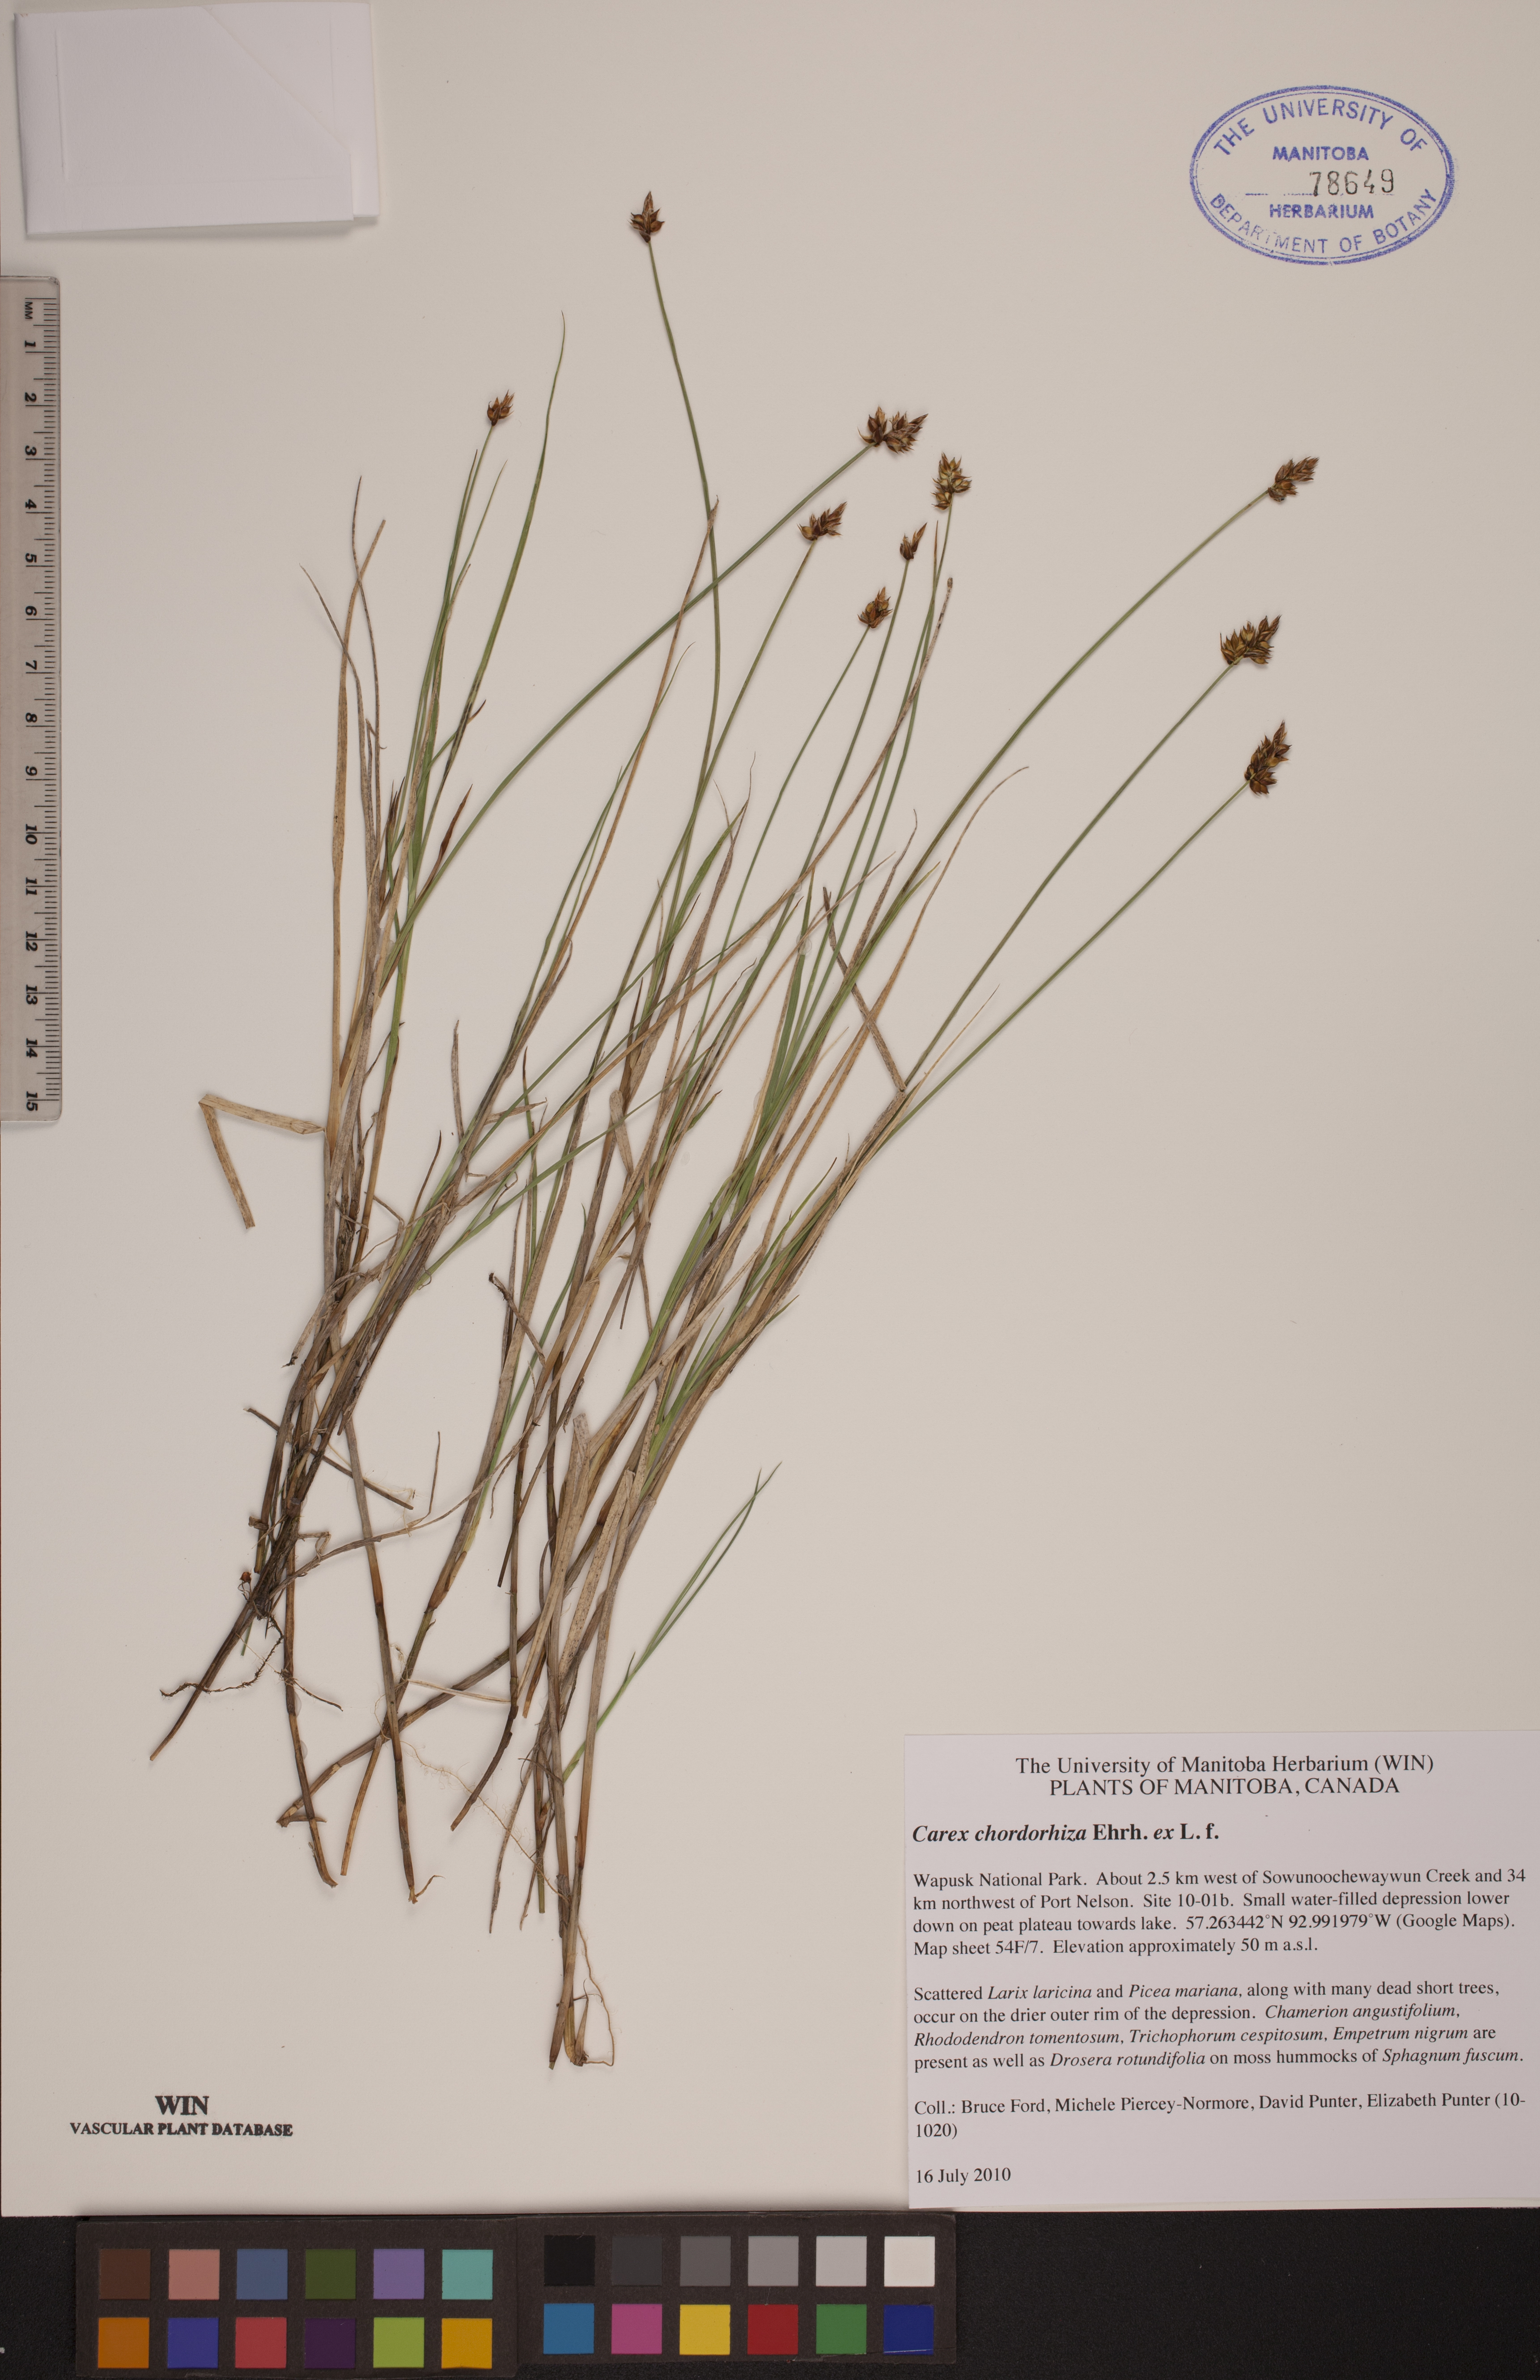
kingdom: Plantae
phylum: Tracheophyta
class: Liliopsida
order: Poales
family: Cyperaceae
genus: Carex
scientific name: Carex chordorrhiza
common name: String sedge
